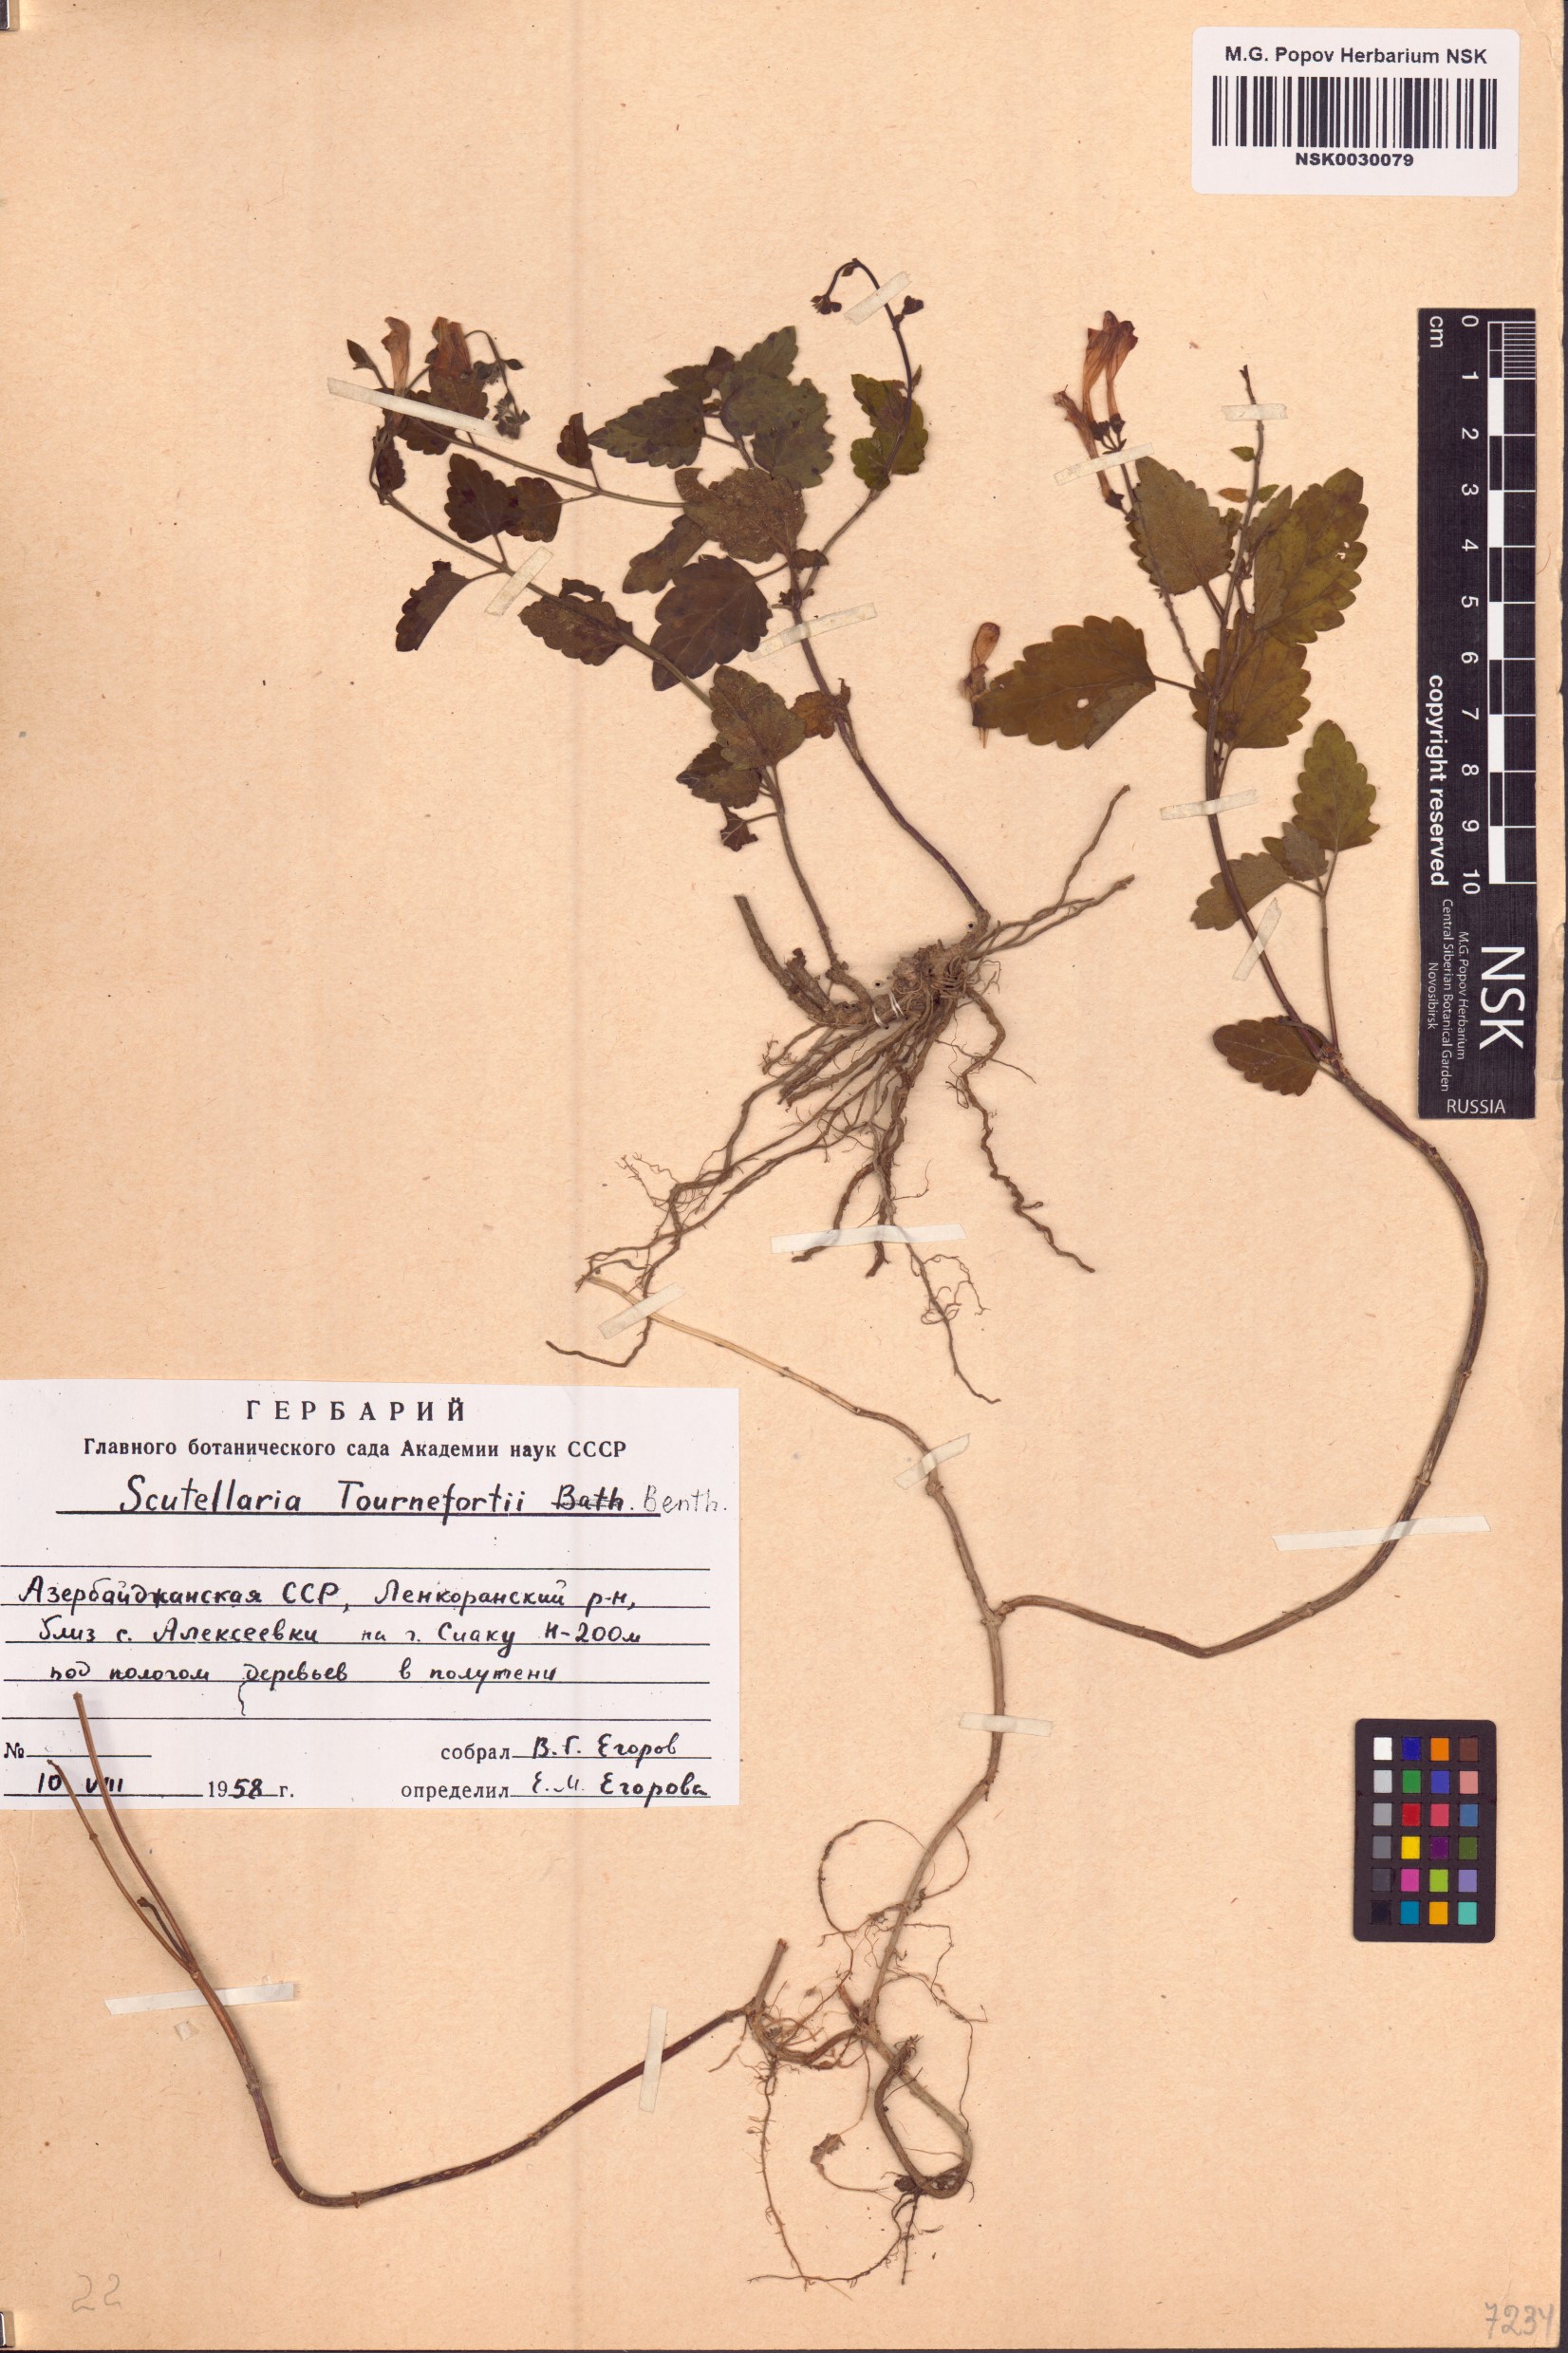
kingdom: Plantae
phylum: Tracheophyta
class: Magnoliopsida
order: Lamiales
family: Lamiaceae
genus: Scutellaria
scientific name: Scutellaria tournefortii
